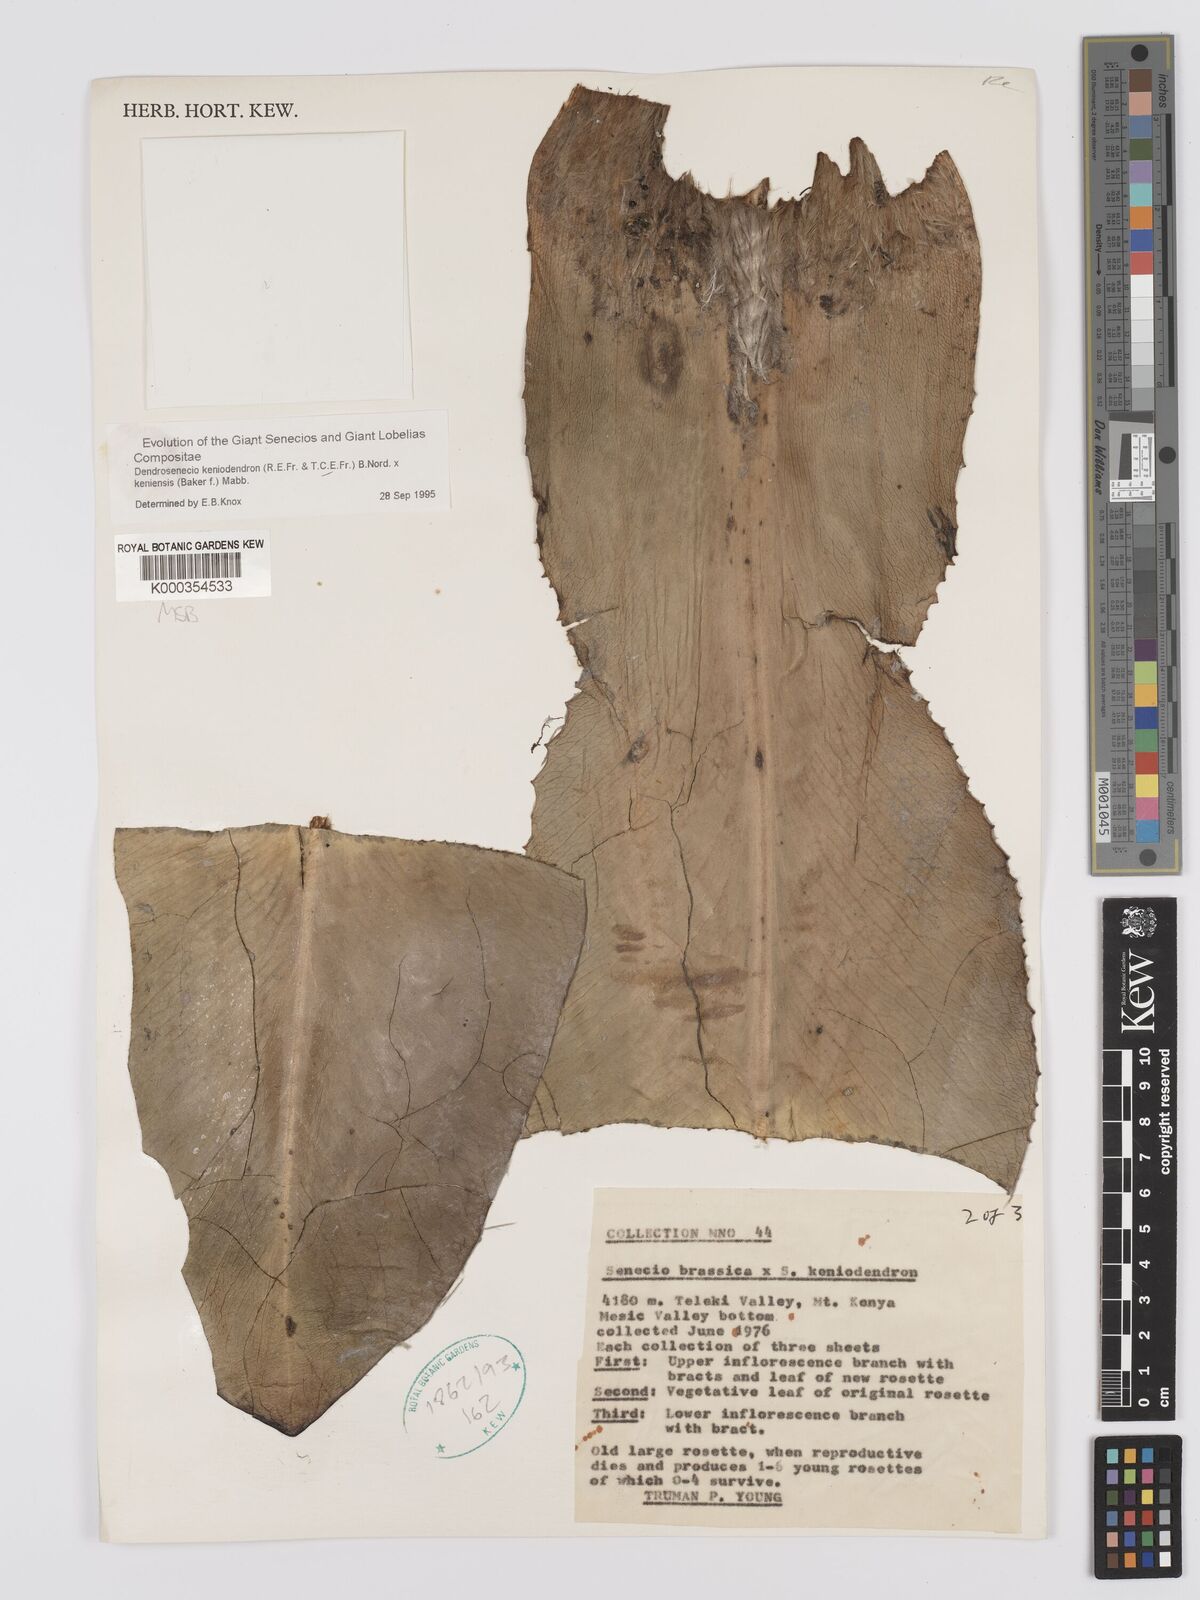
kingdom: Plantae
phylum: Tracheophyta
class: Magnoliopsida
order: Asterales
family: Asteraceae
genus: Dendrosenecio
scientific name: Dendrosenecio keniodendron
